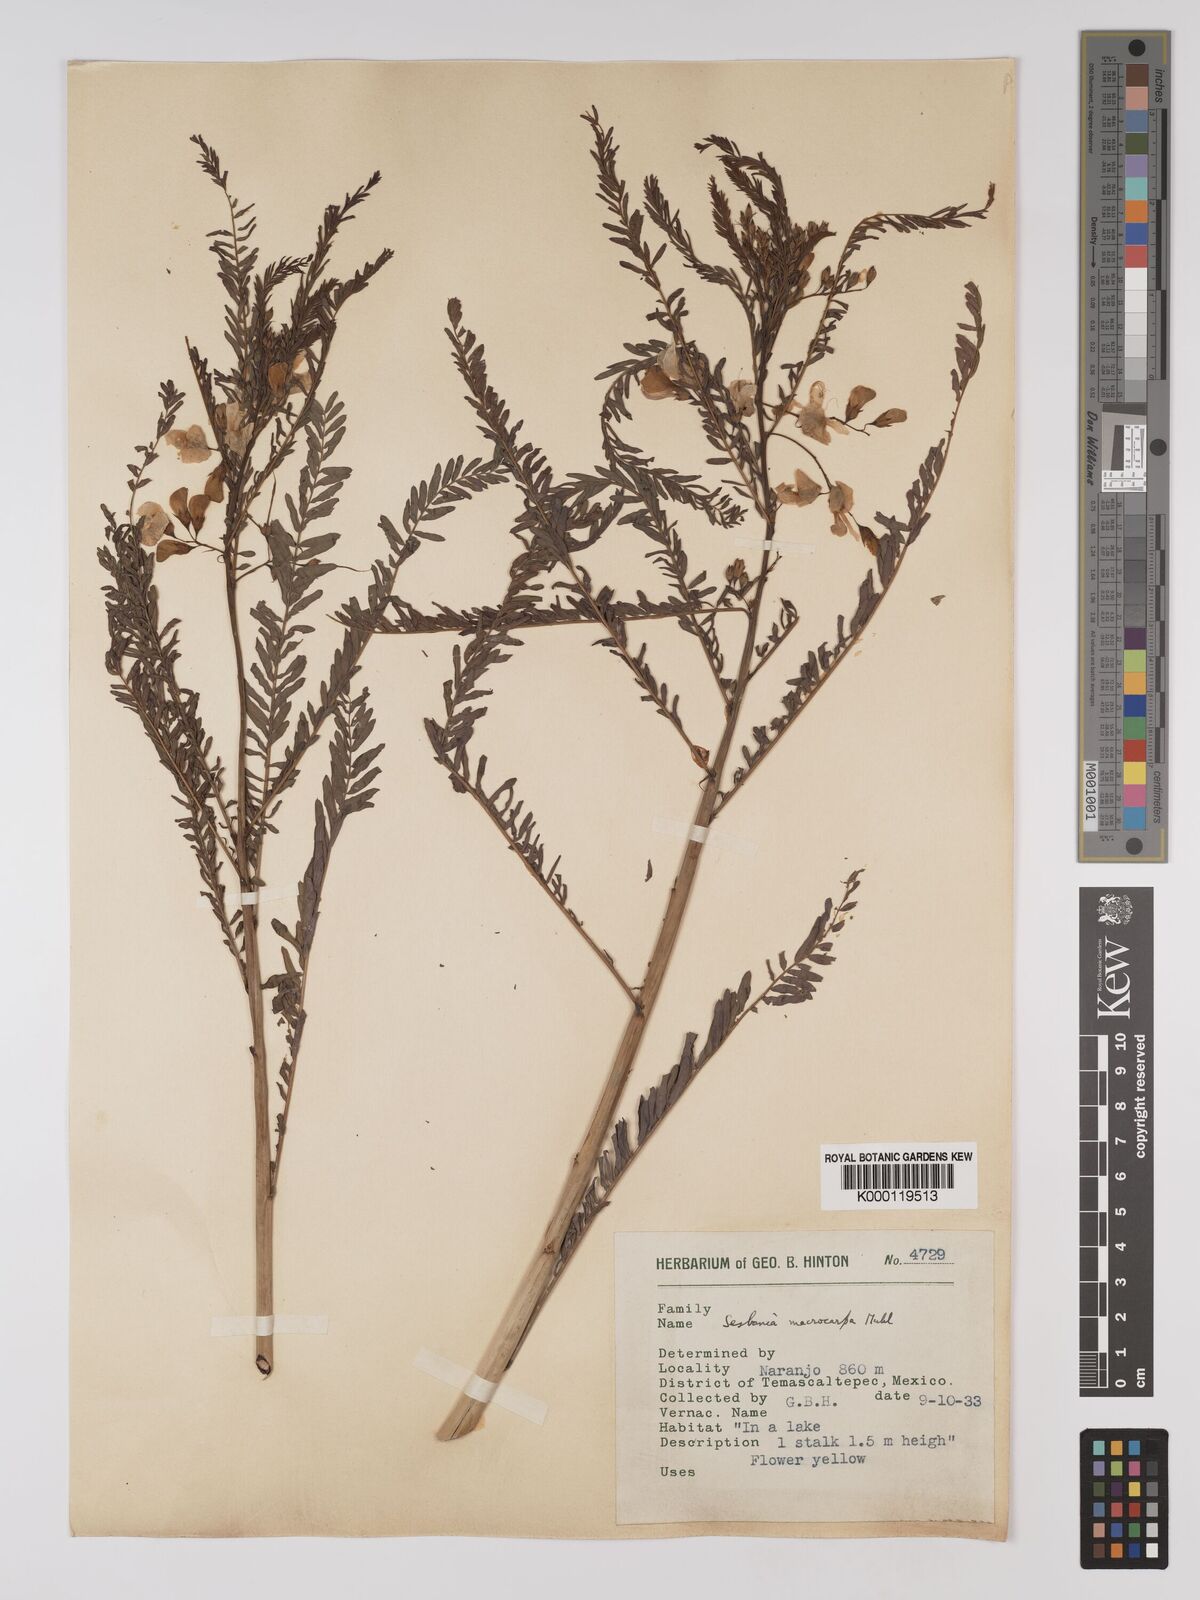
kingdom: Plantae
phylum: Tracheophyta
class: Magnoliopsida
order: Fabales
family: Fabaceae
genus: Sesbania
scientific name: Sesbania vesicaria
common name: Bagpod
